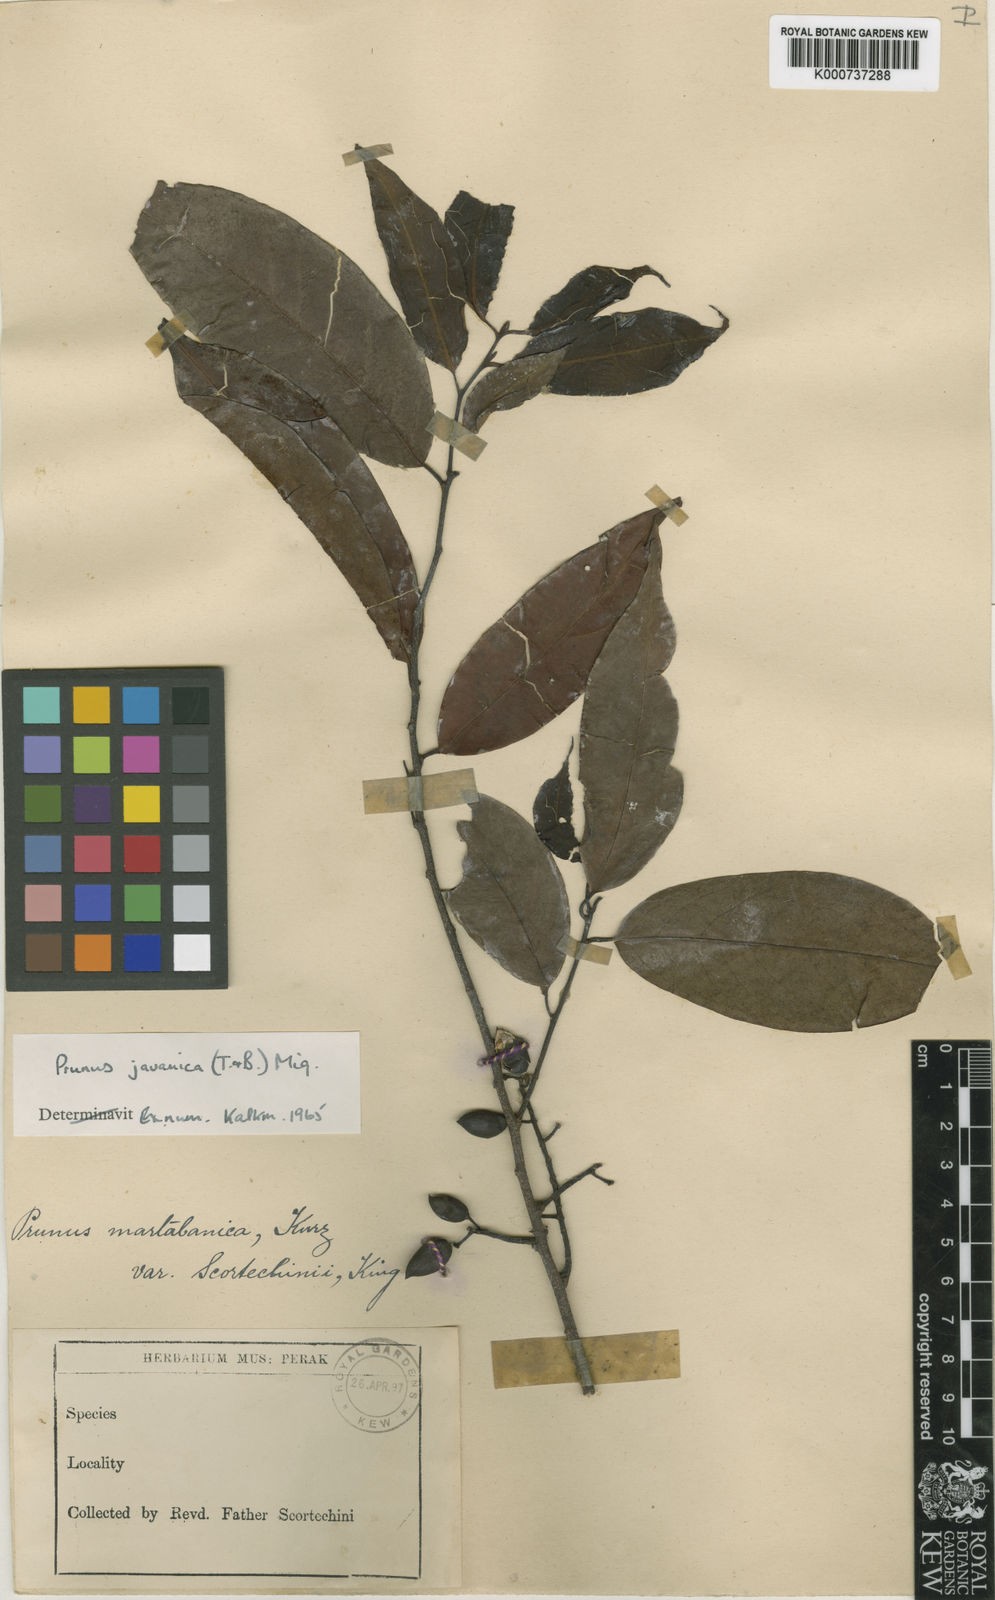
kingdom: Plantae
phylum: Tracheophyta
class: Magnoliopsida
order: Rosales
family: Rosaceae
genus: Prunus
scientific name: Prunus javanica
